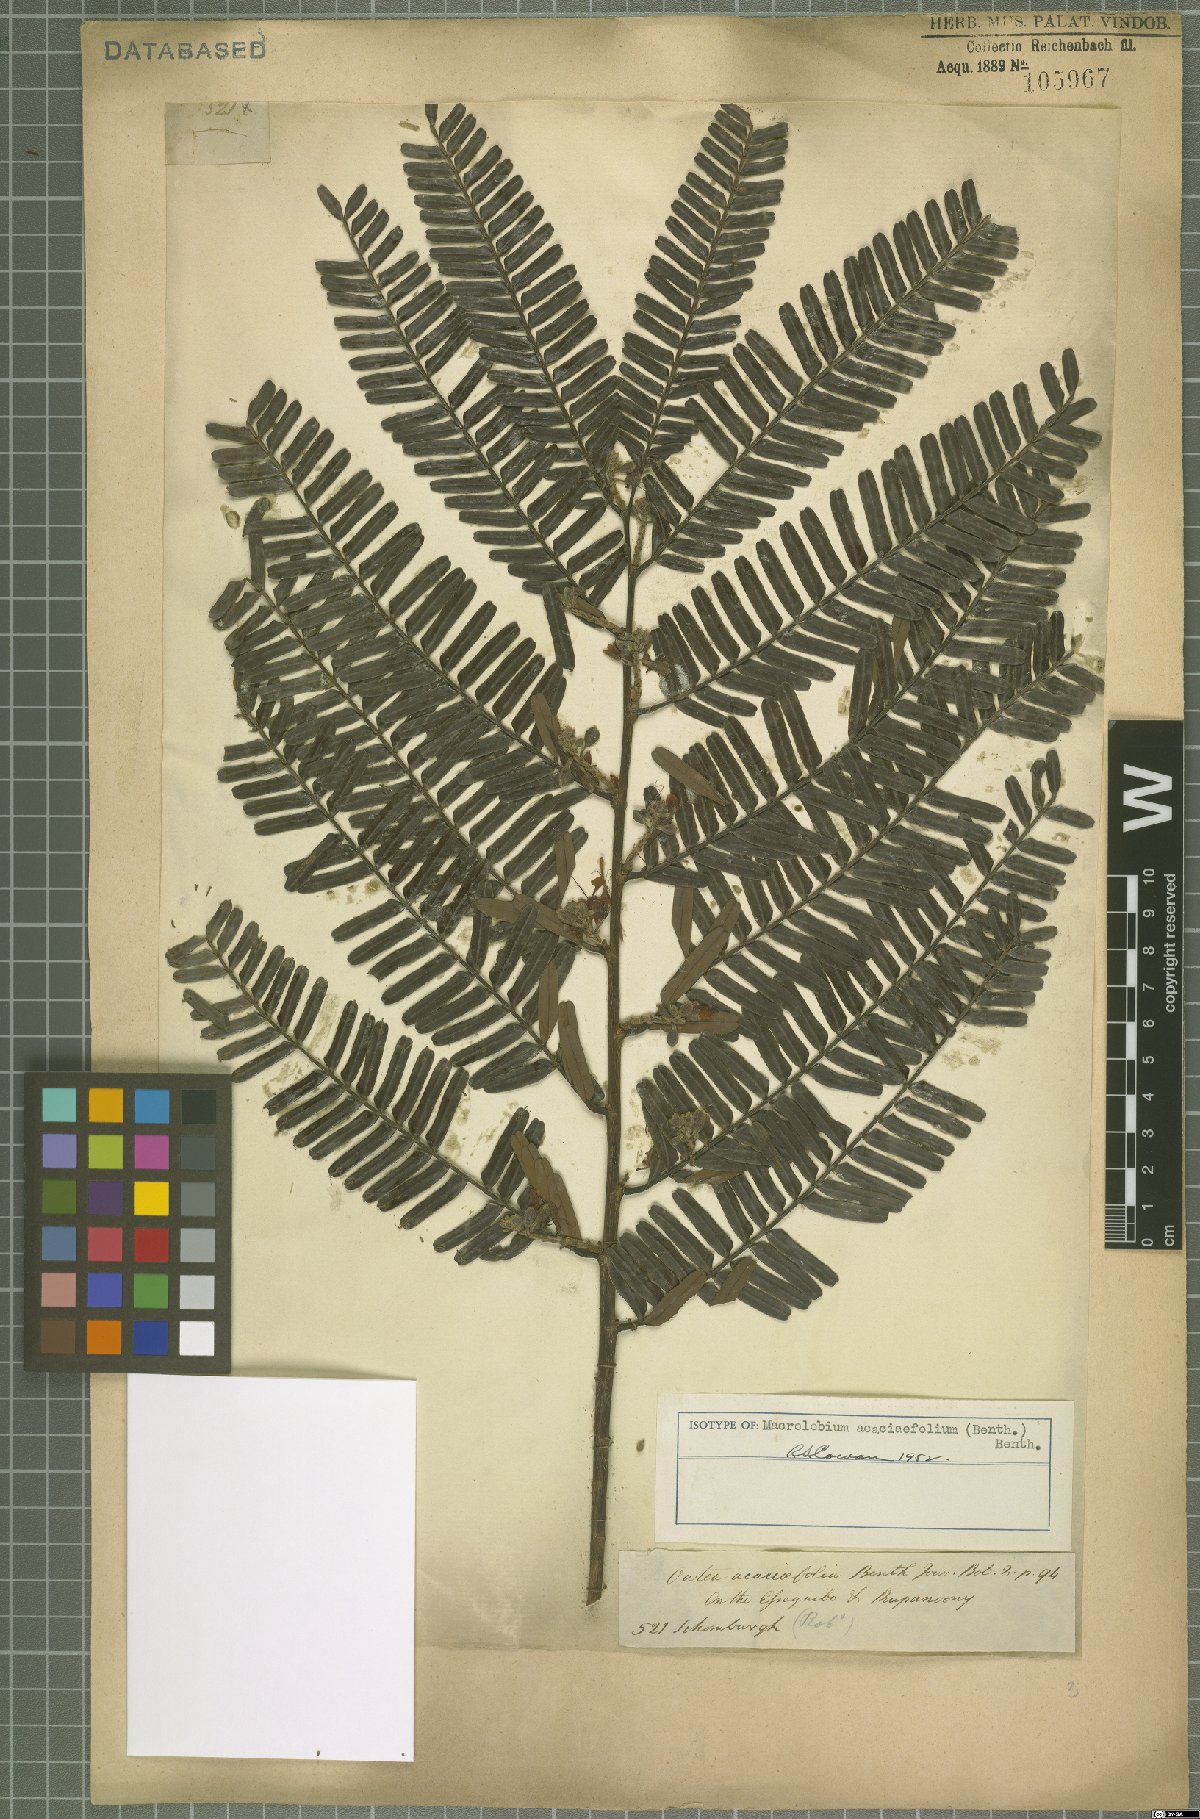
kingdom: Plantae
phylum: Tracheophyta
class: Magnoliopsida
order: Fabales
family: Fabaceae
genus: Macrolobium
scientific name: Macrolobium acaciifolium
